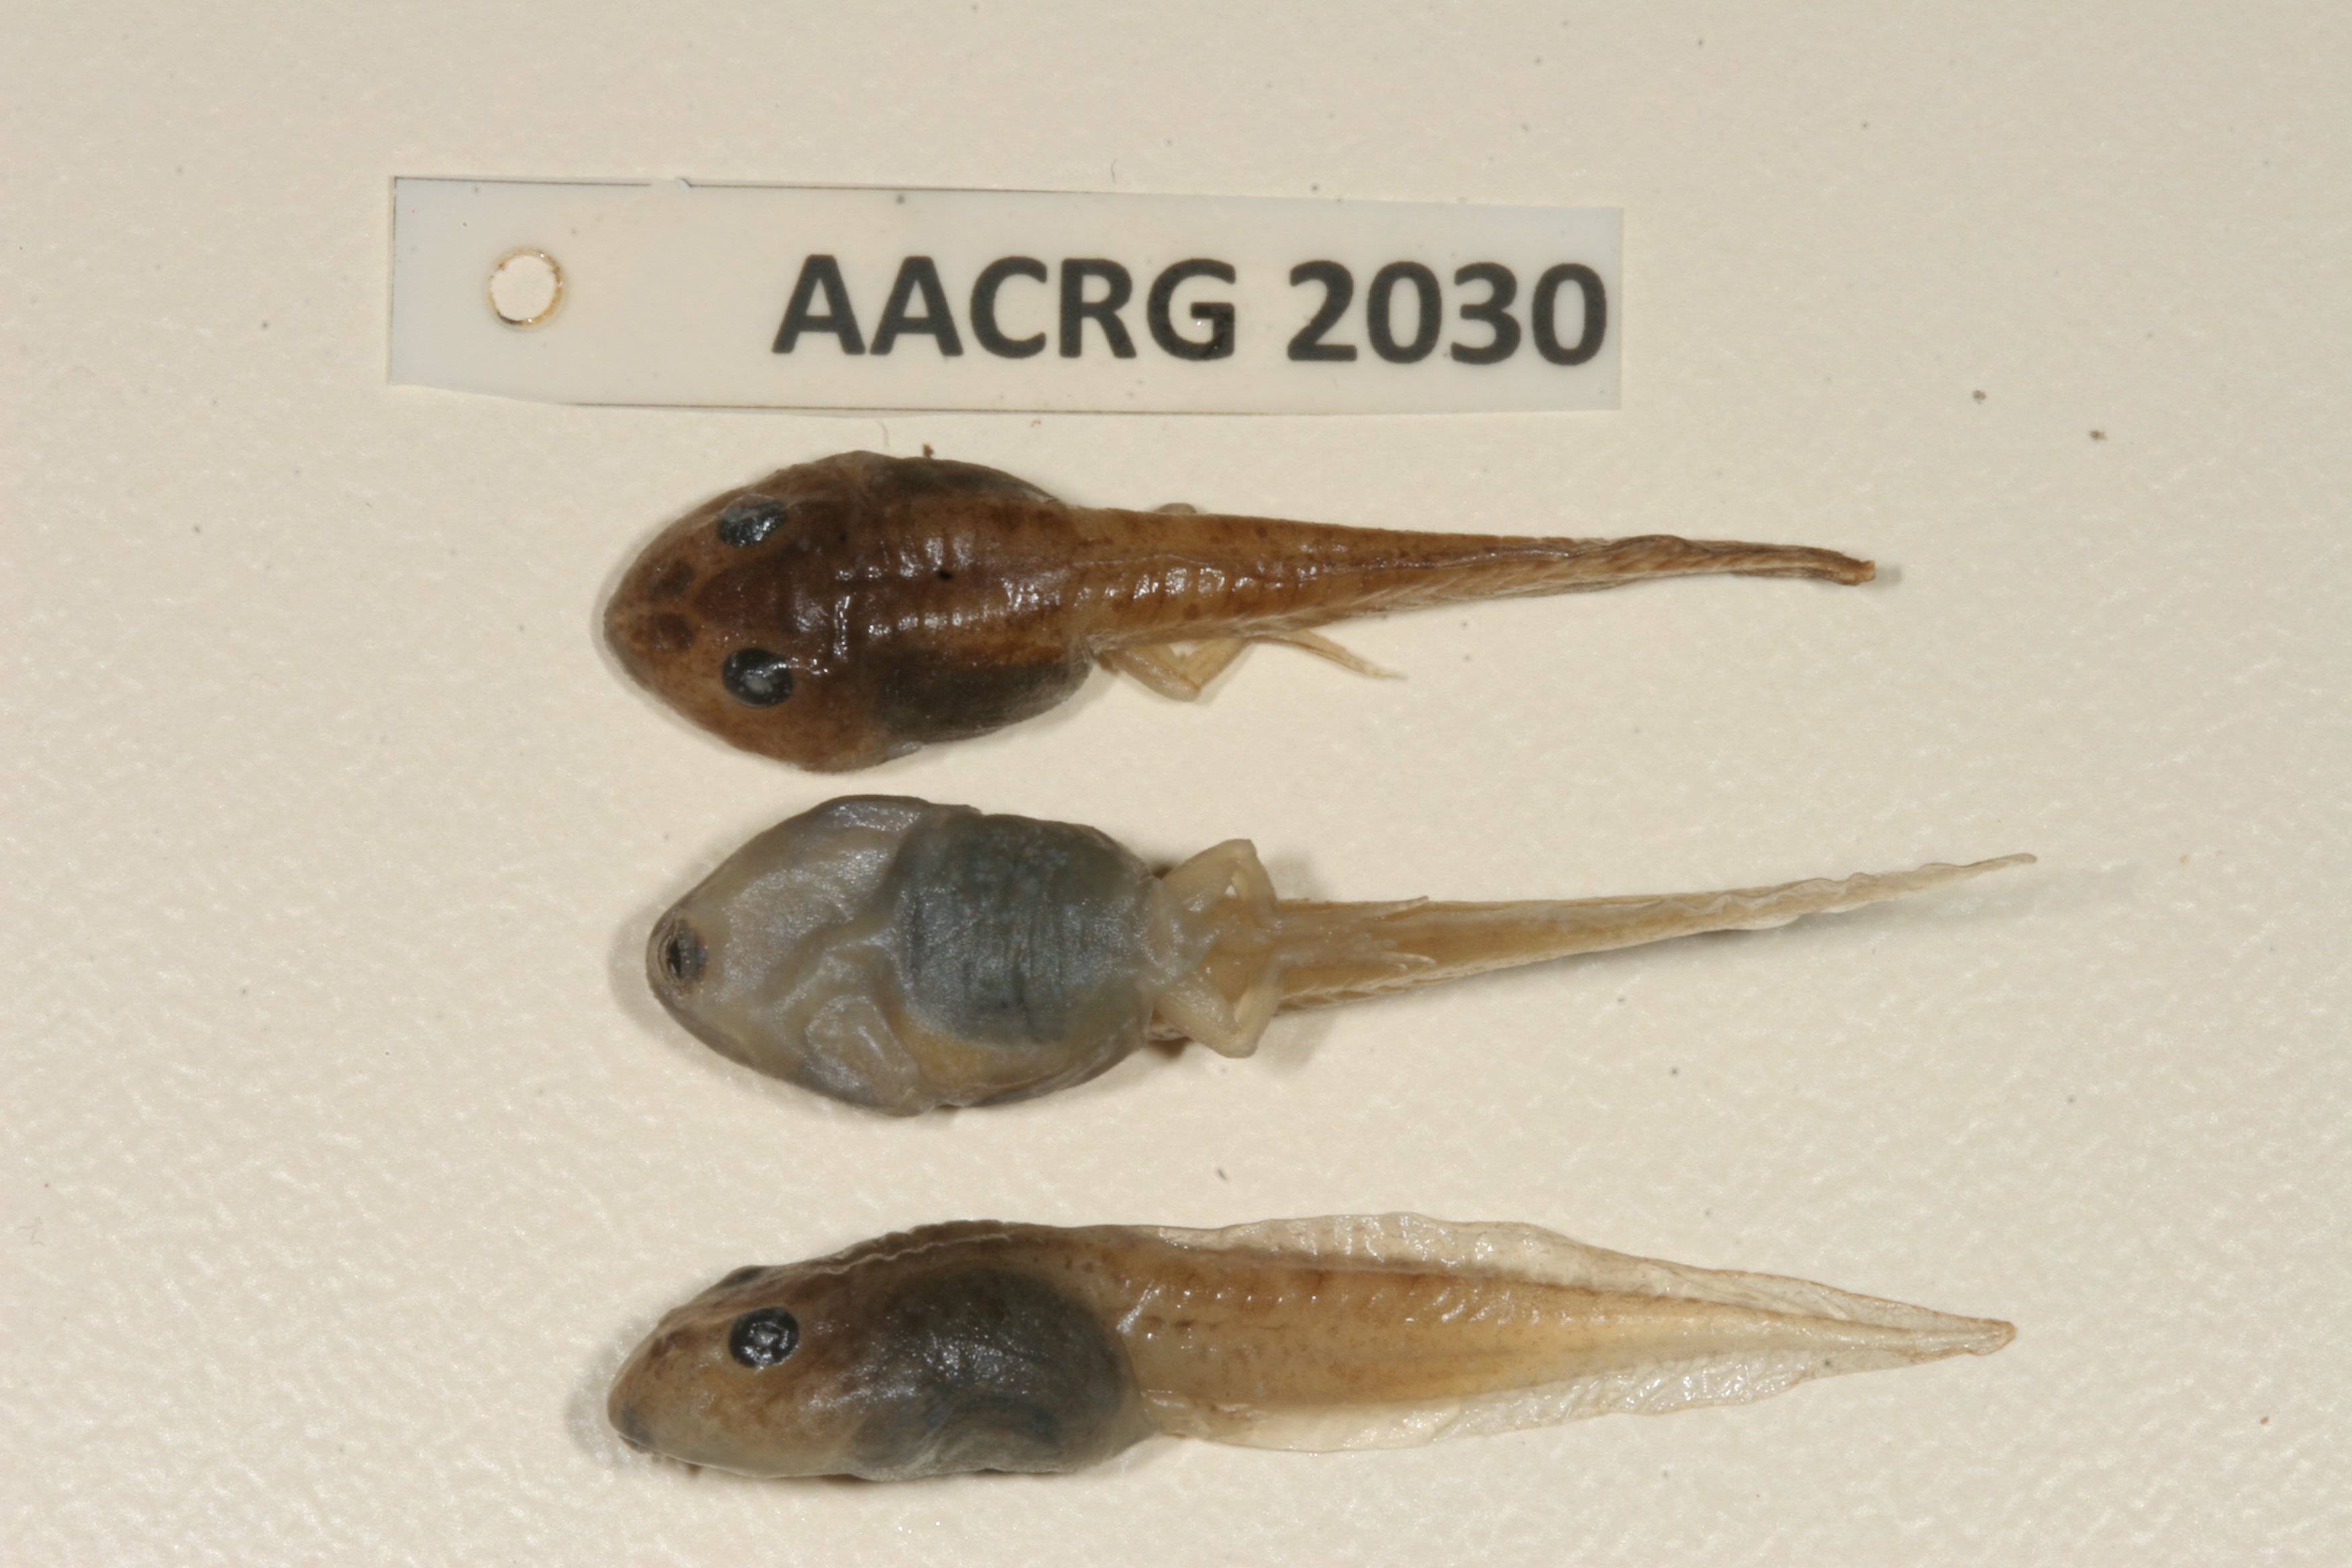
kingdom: Animalia
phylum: Chordata
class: Amphibia
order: Anura
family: Pyxicephalidae
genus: Strongylopus
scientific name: Strongylopus grayii
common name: Gray's stream frog
